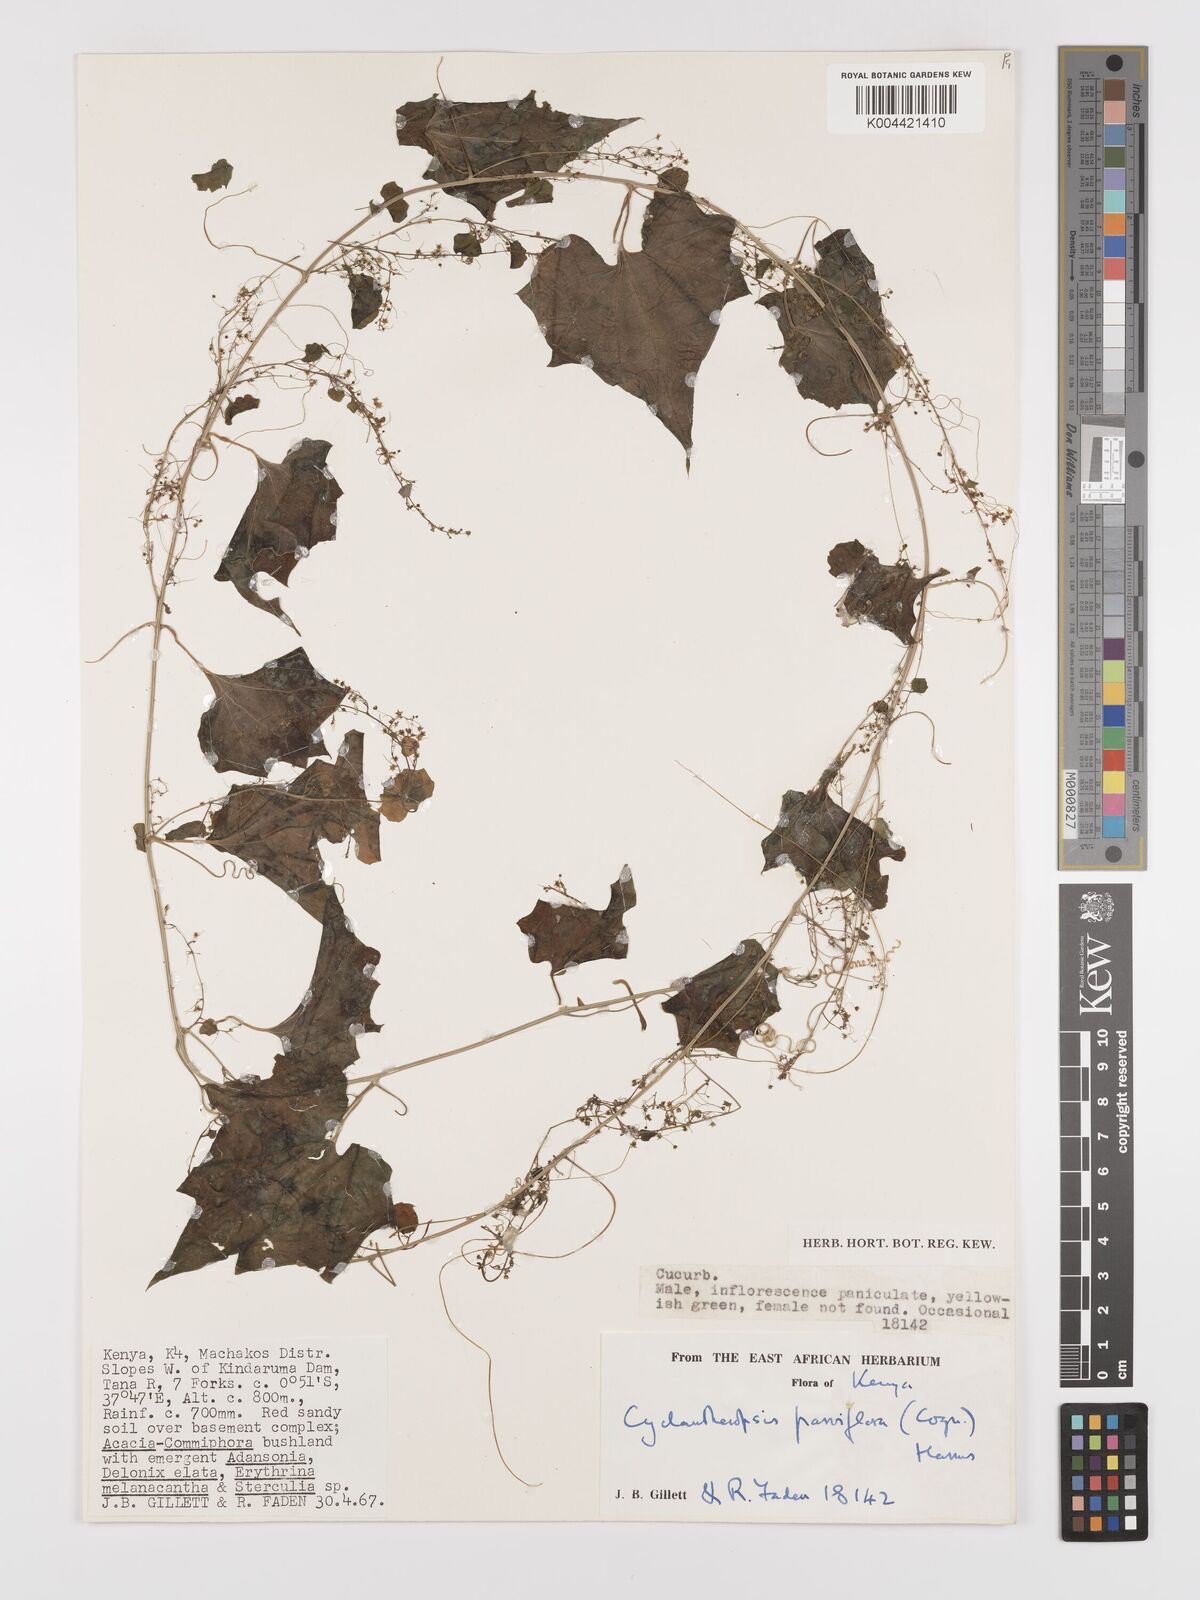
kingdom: Plantae
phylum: Tracheophyta
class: Magnoliopsida
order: Cucurbitales
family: Cucurbitaceae
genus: Cyclantheropsis
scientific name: Cyclantheropsis parviflora
